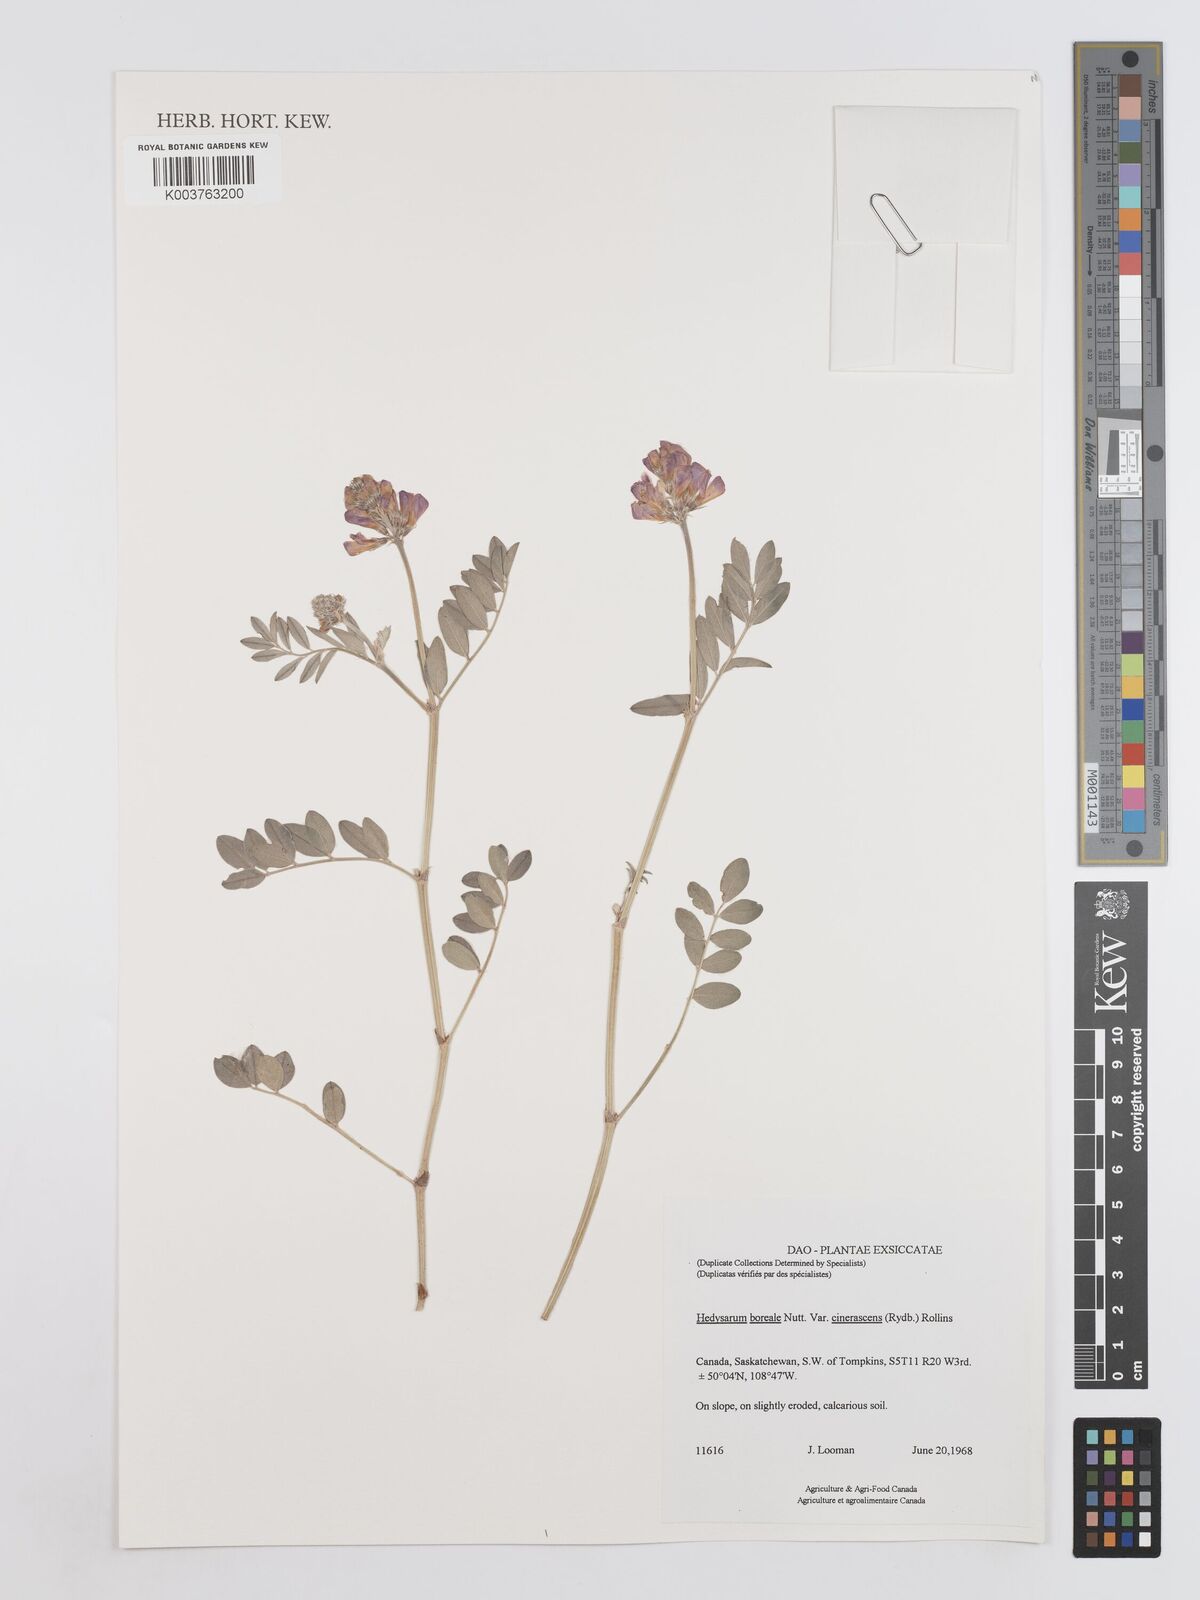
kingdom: Plantae
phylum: Tracheophyta
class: Magnoliopsida
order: Fabales
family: Fabaceae
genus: Hedysarum
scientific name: Hedysarum boreale
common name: Northern sweet-vetch
